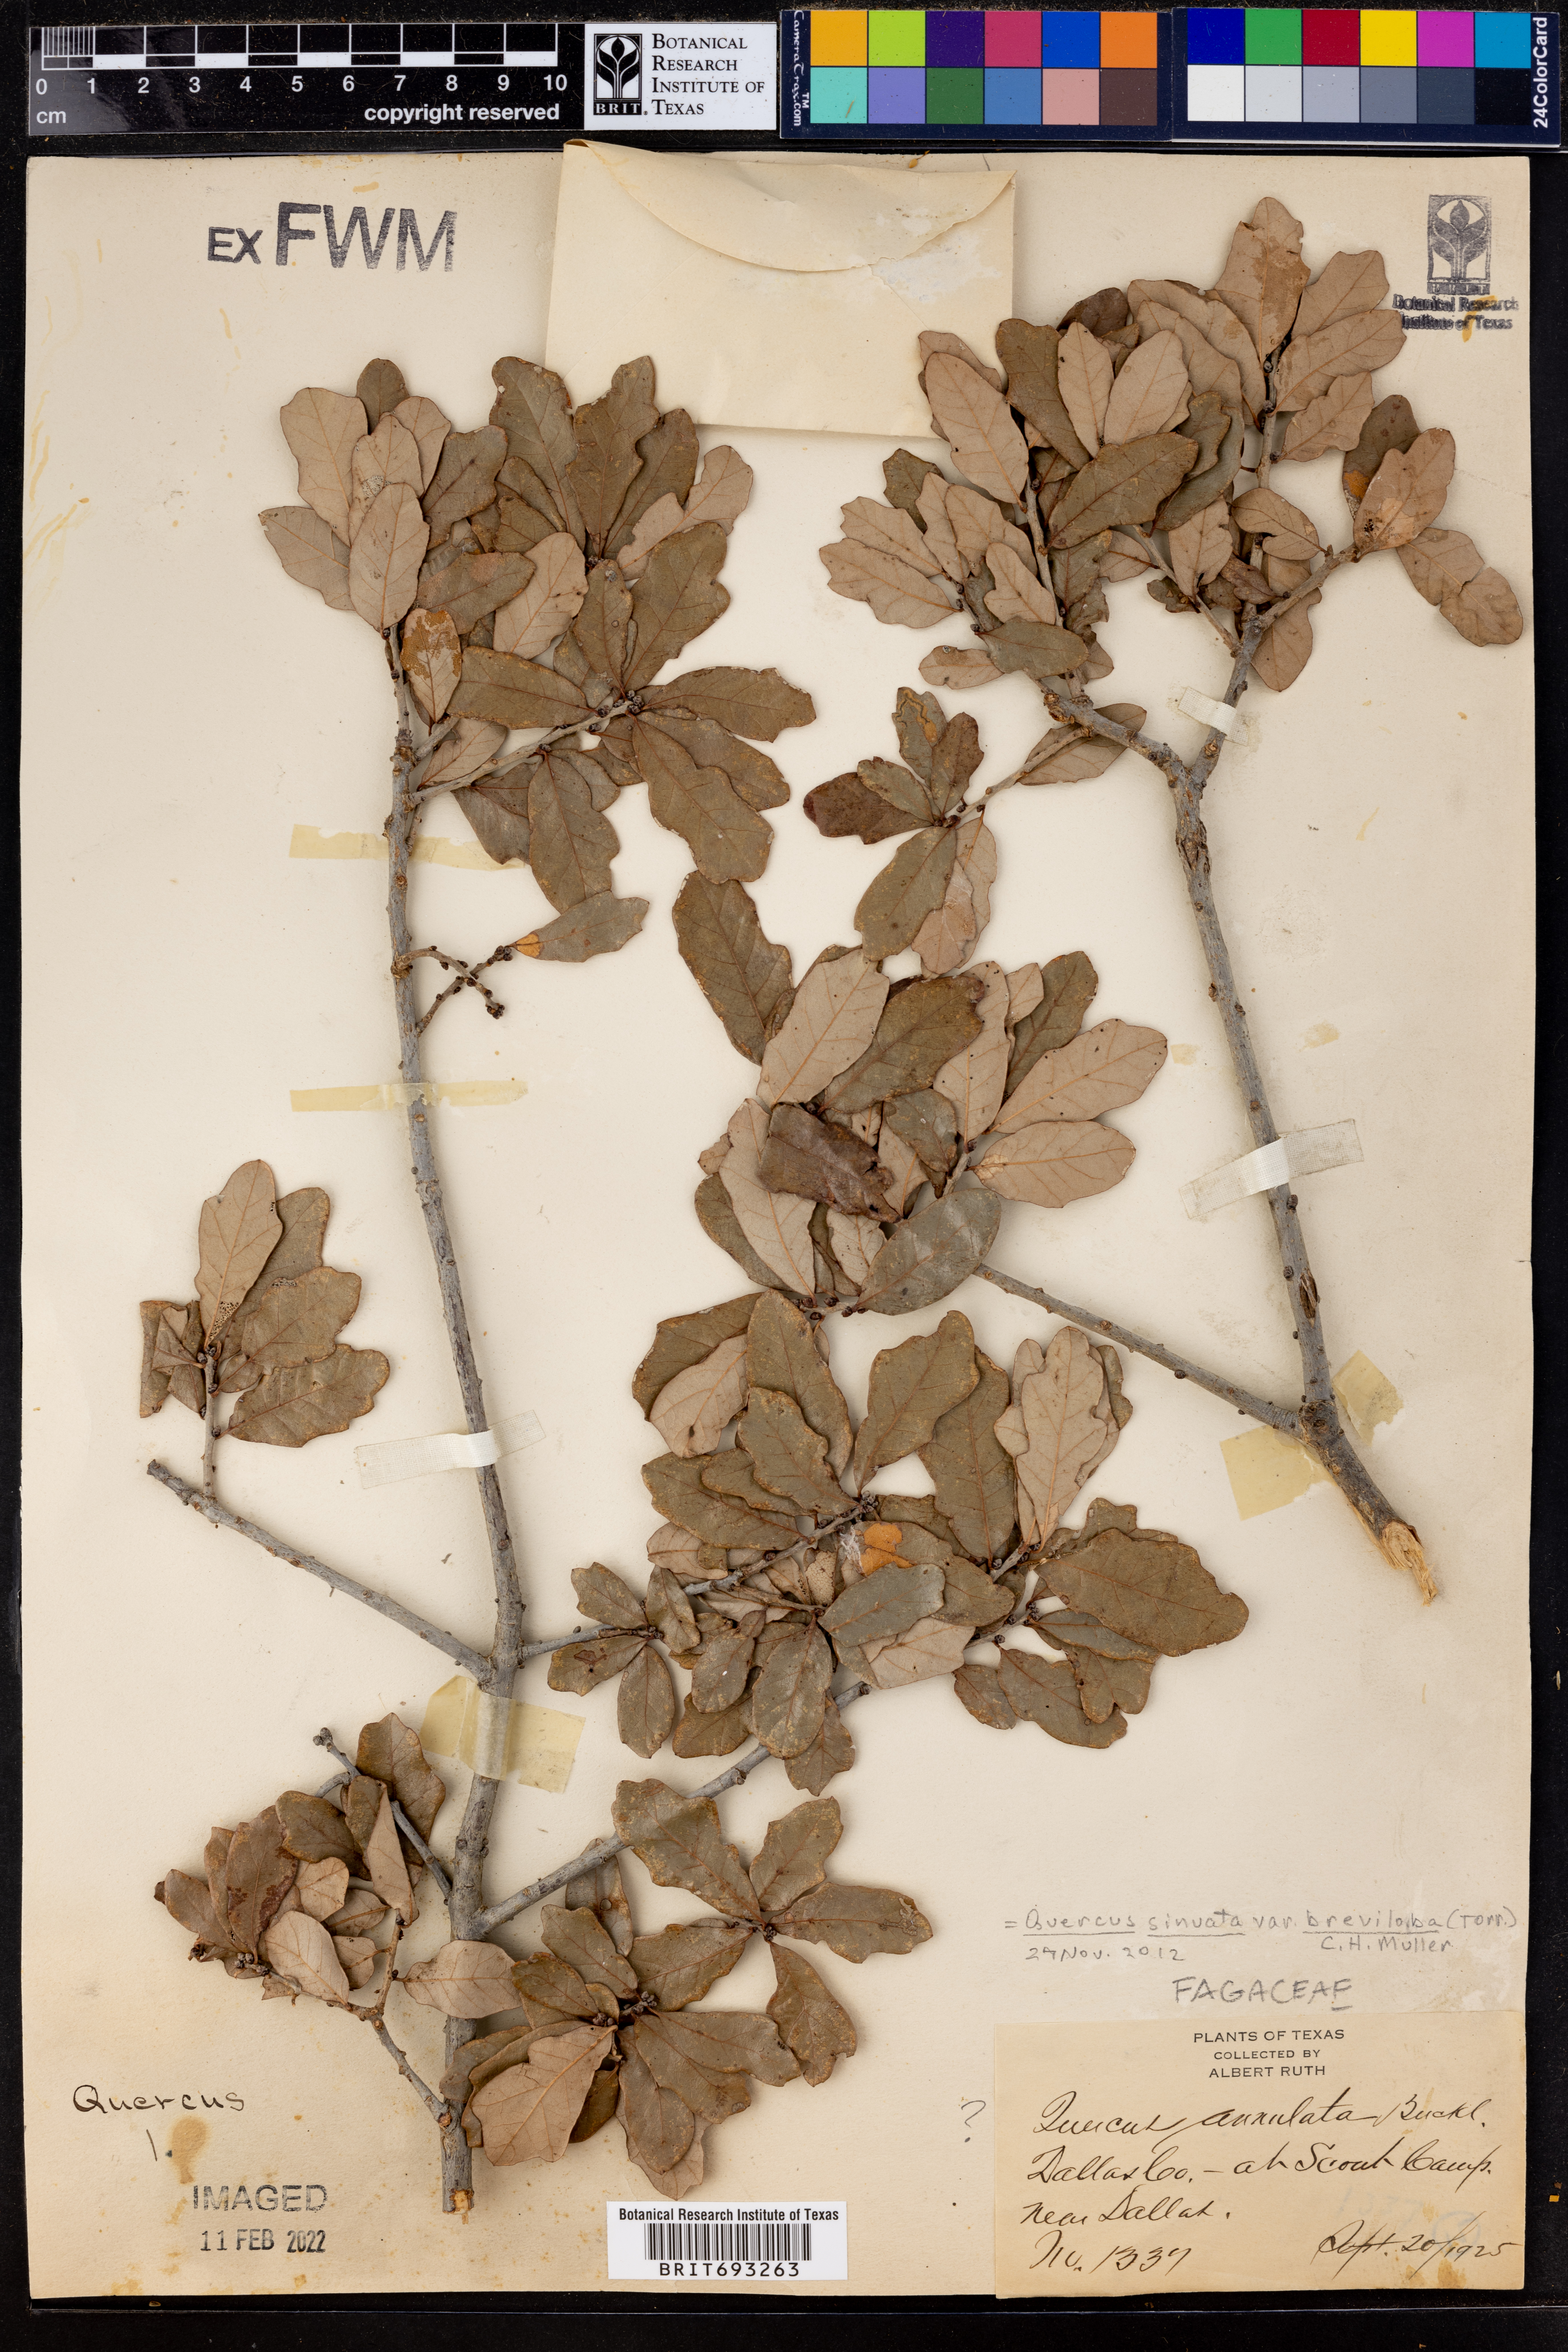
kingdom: Plantae
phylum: Tracheophyta
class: Magnoliopsida
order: Fagales
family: Fagaceae
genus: Quercus
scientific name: Quercus sinuata
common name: Durand oak
